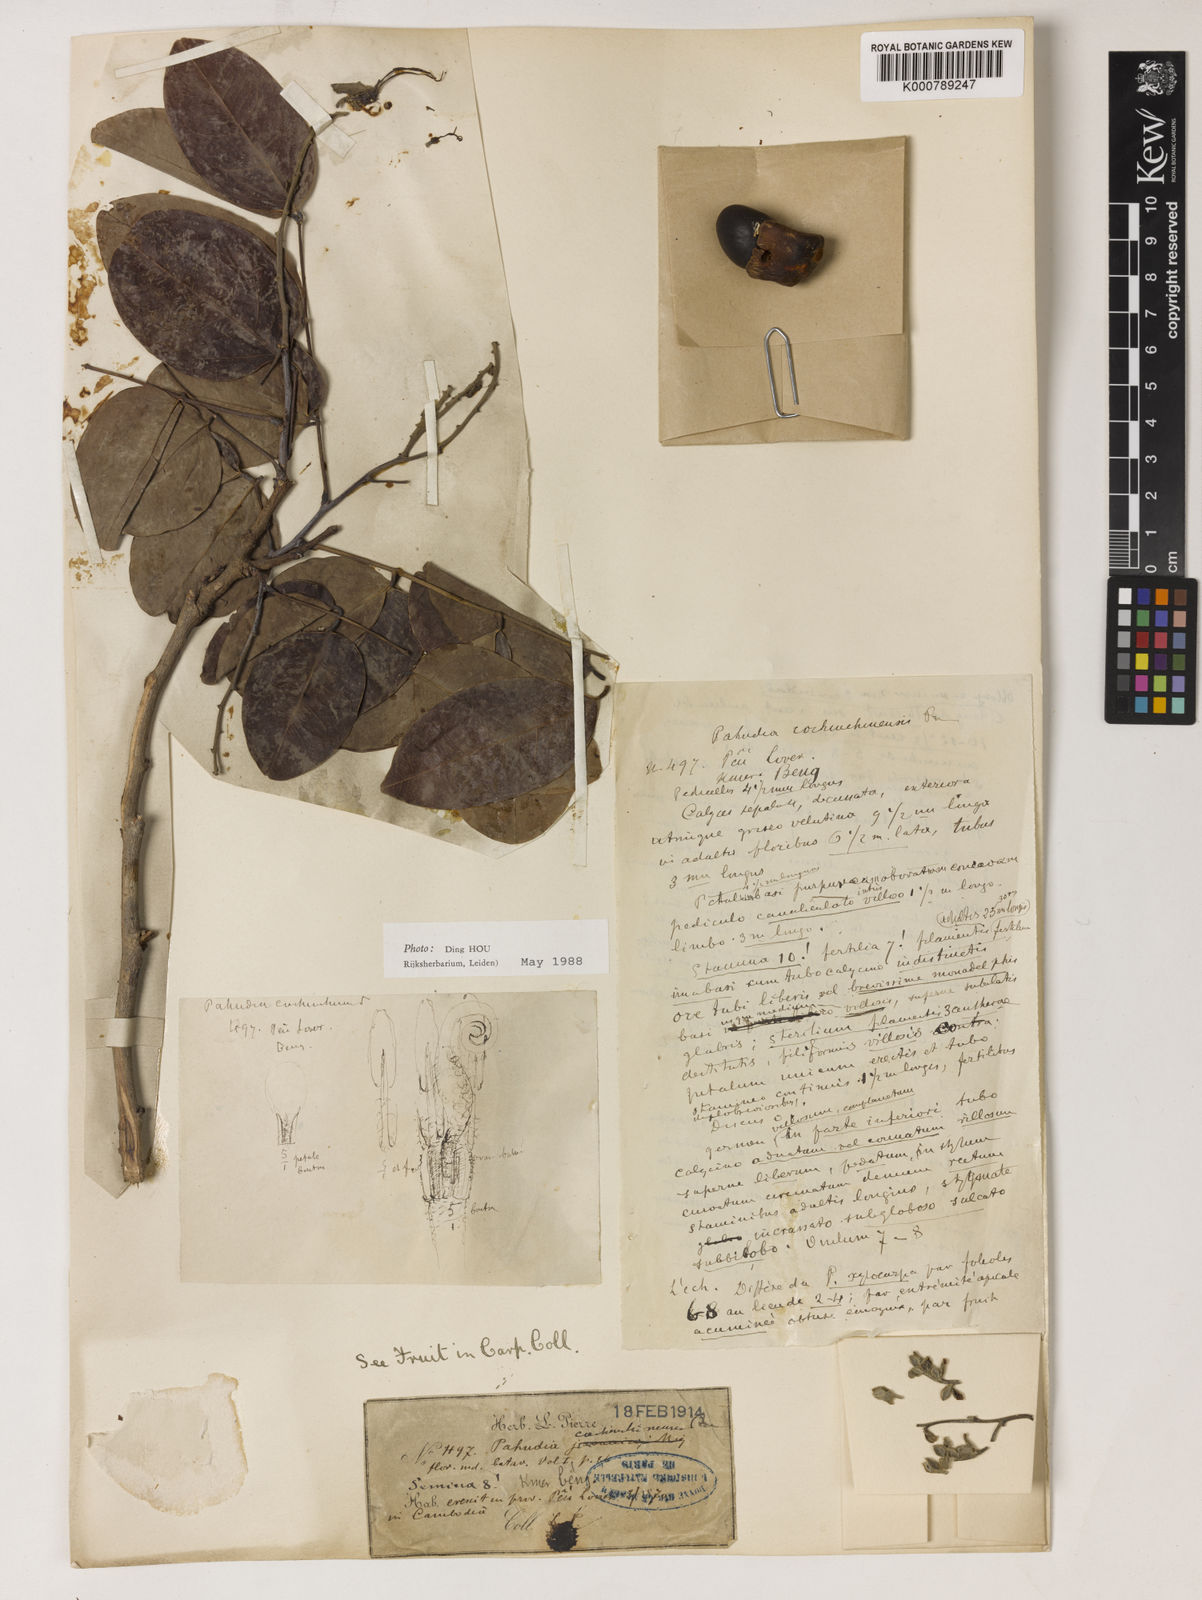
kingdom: Plantae
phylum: Tracheophyta
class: Magnoliopsida
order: Fabales
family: Fabaceae
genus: Afzelia
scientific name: Afzelia
